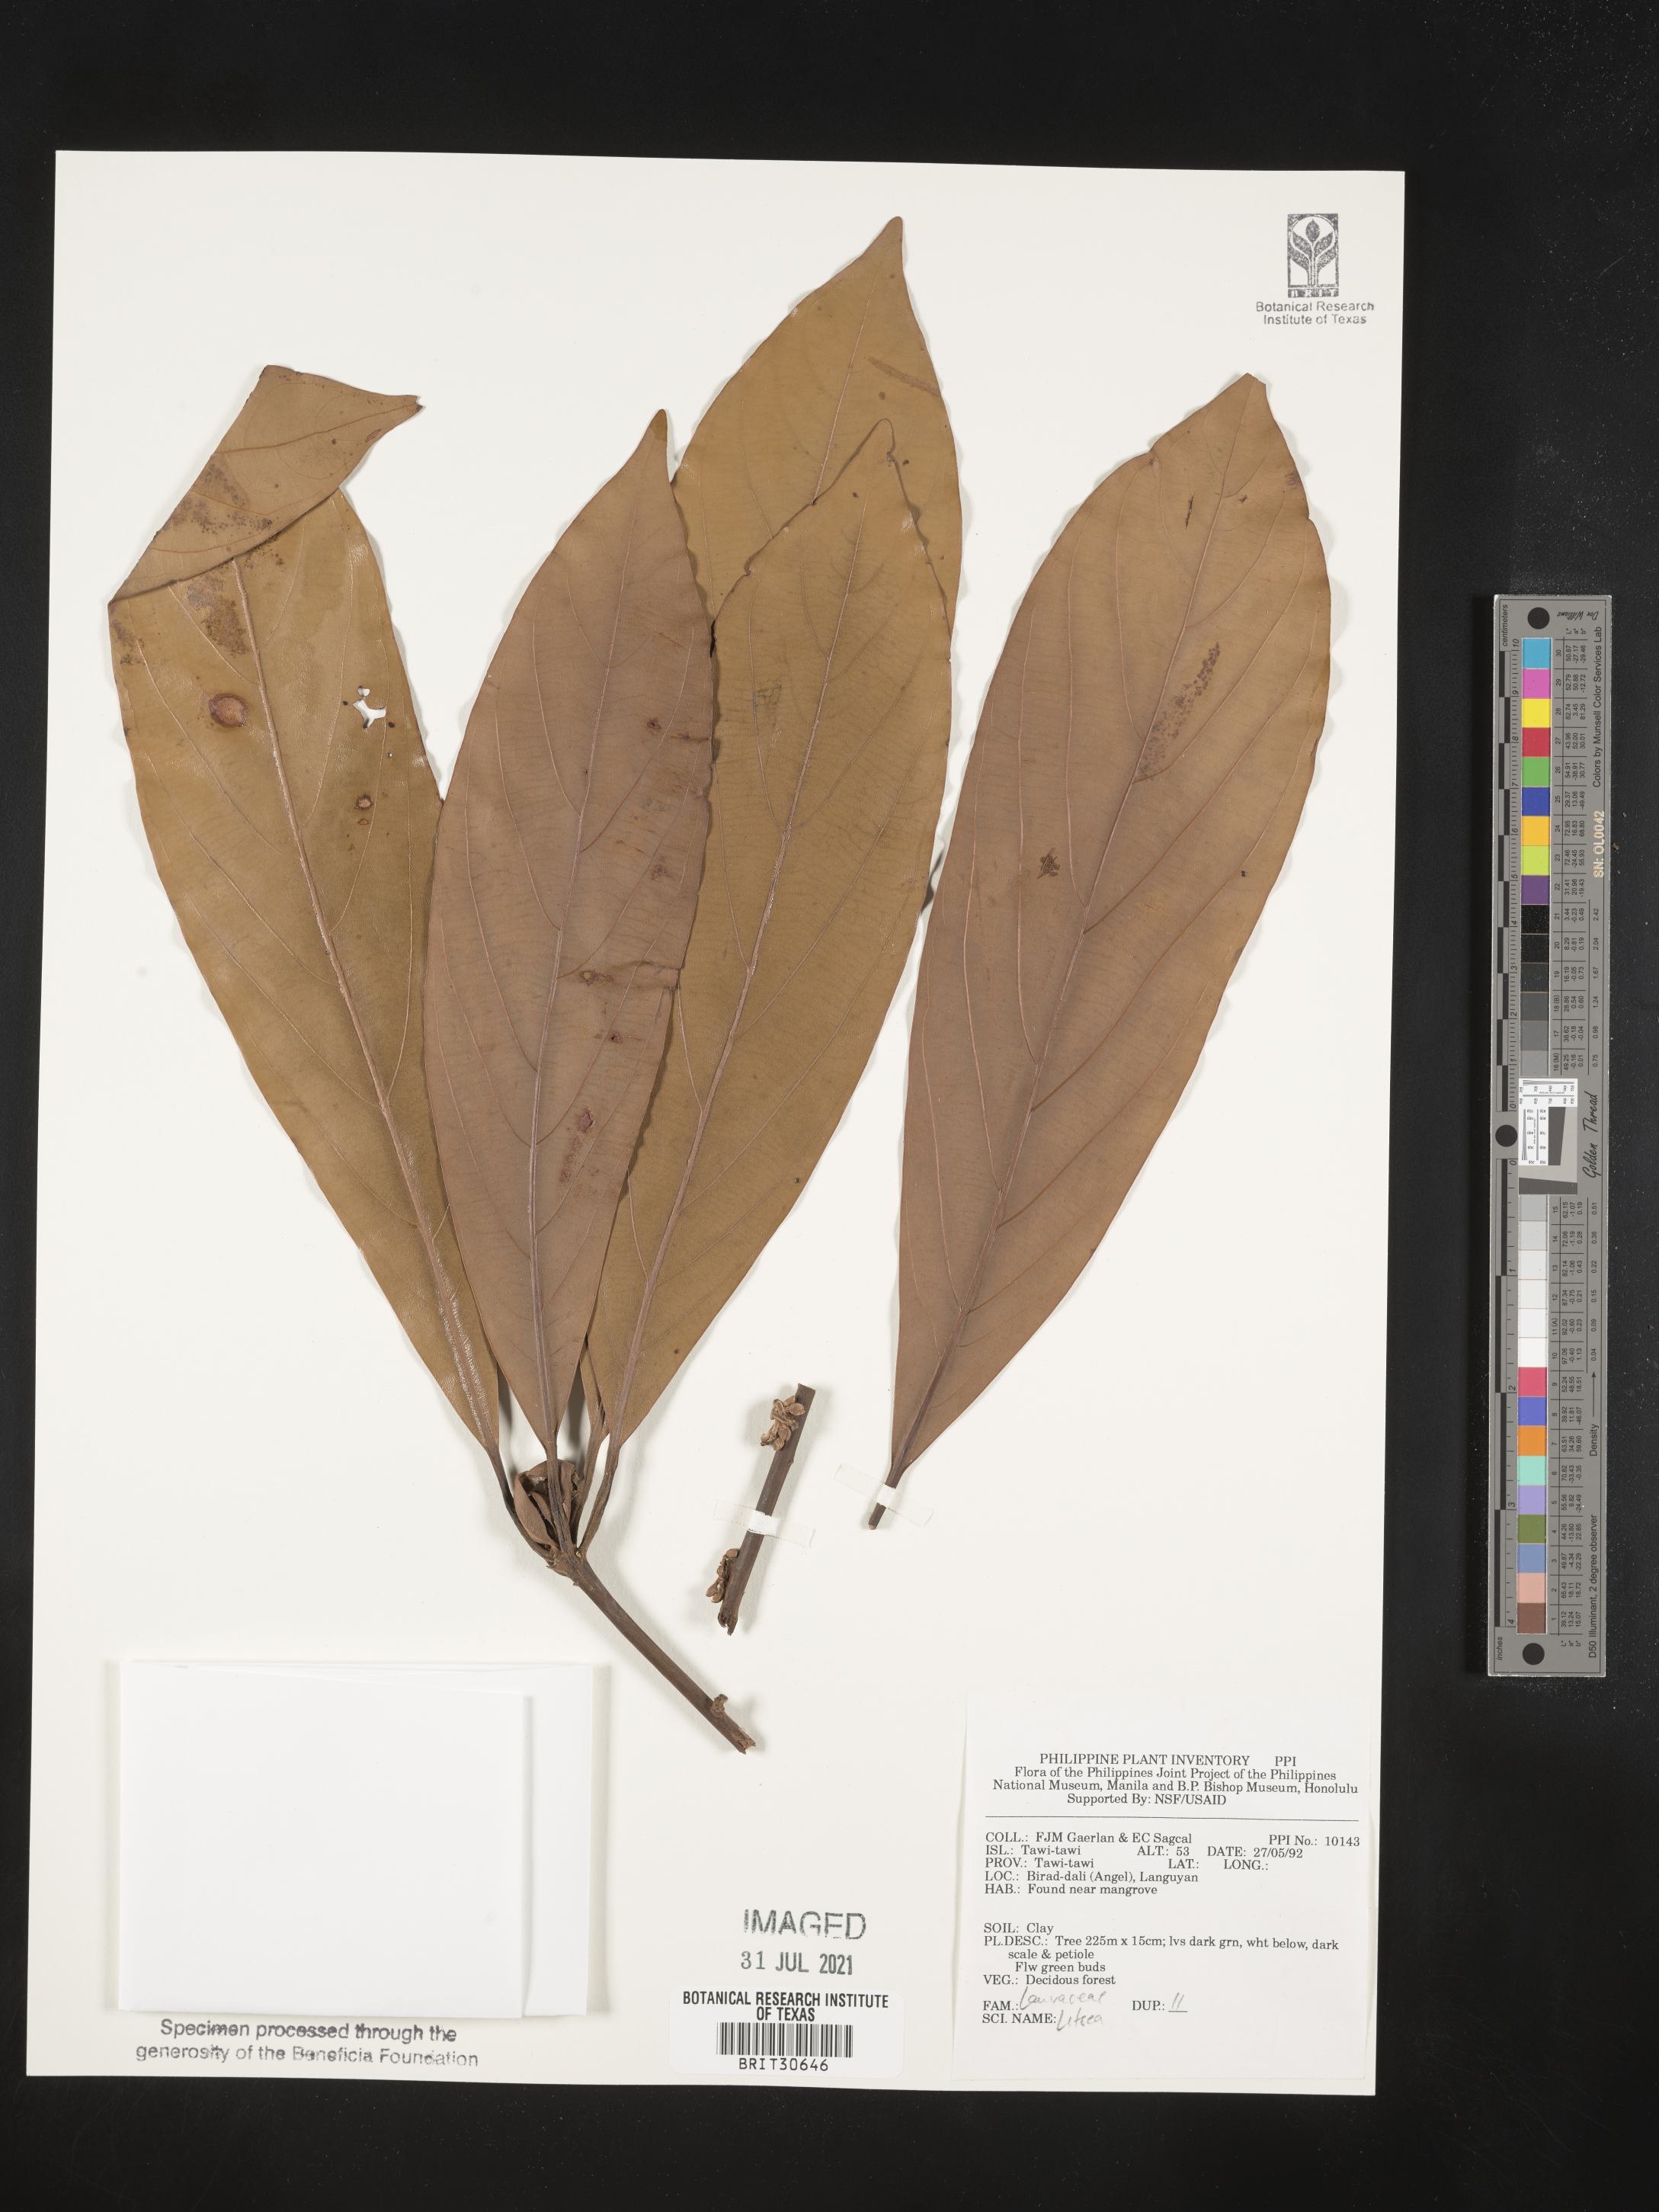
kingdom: Plantae
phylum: Tracheophyta
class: Magnoliopsida
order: Laurales
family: Lauraceae
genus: Litsea
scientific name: Litsea
